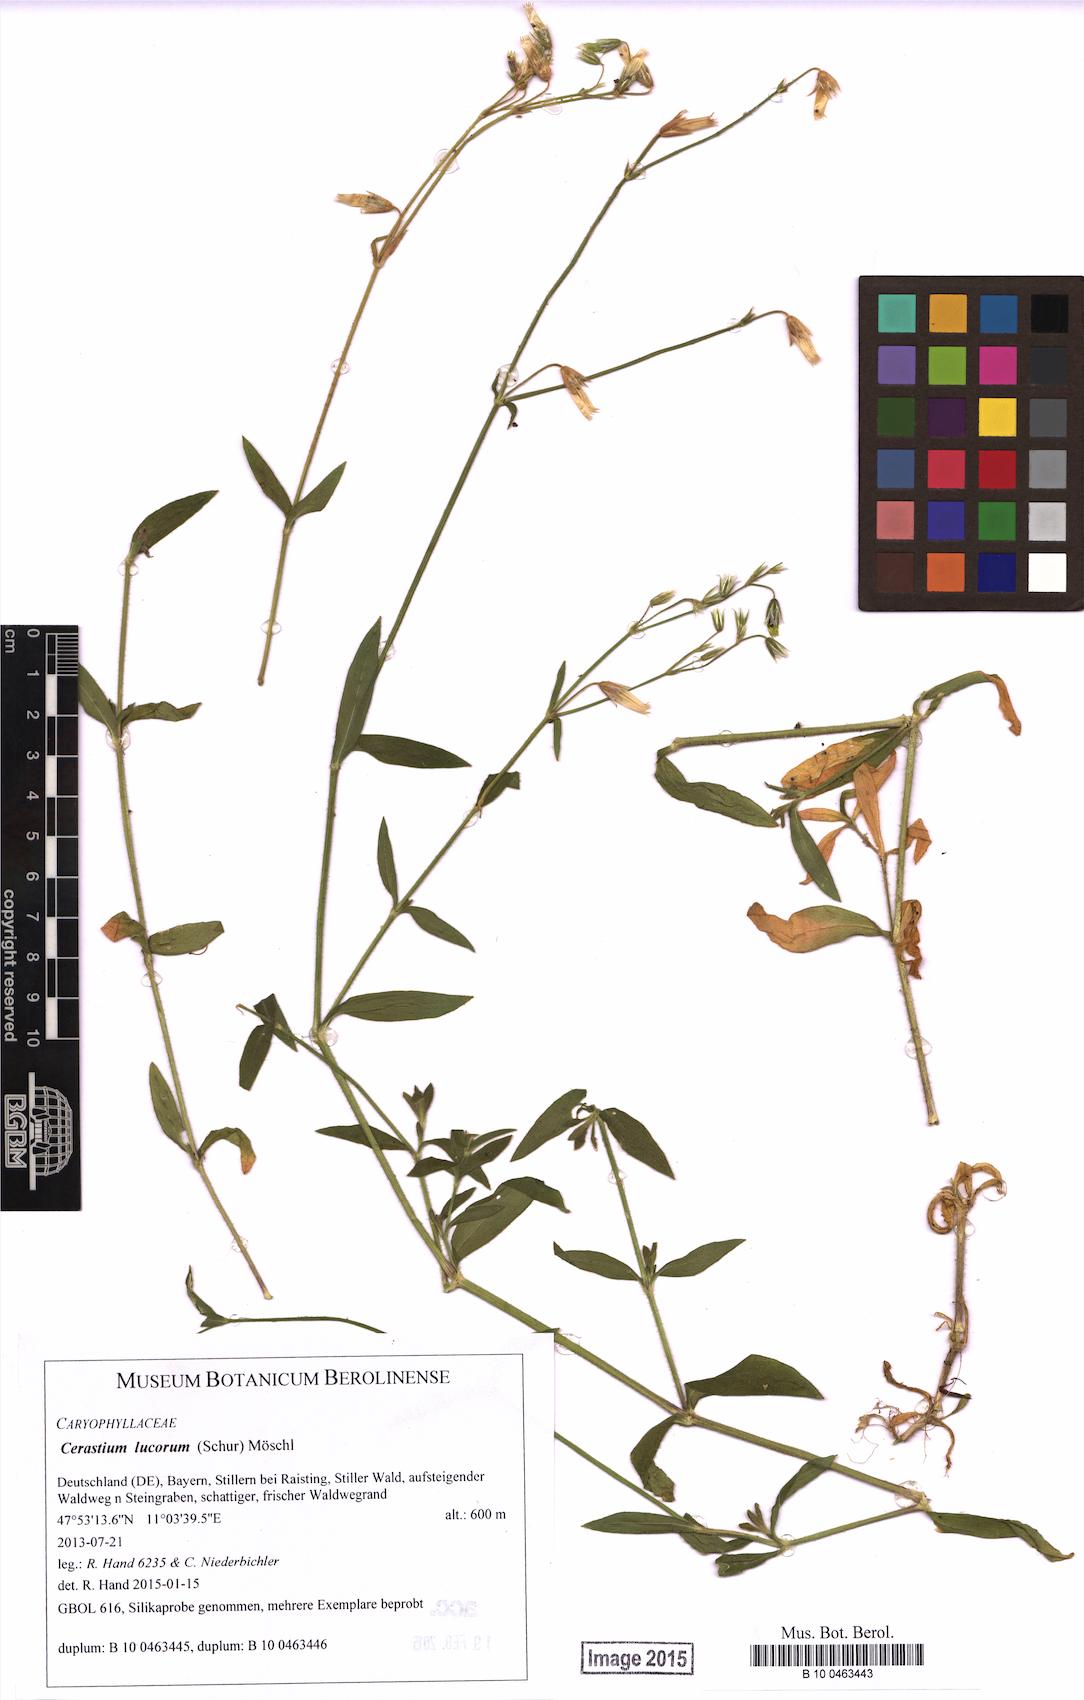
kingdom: Plantae
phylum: Tracheophyta
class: Magnoliopsida
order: Caryophyllales
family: Caryophyllaceae
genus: Cerastium
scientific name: Cerastium lucorum
